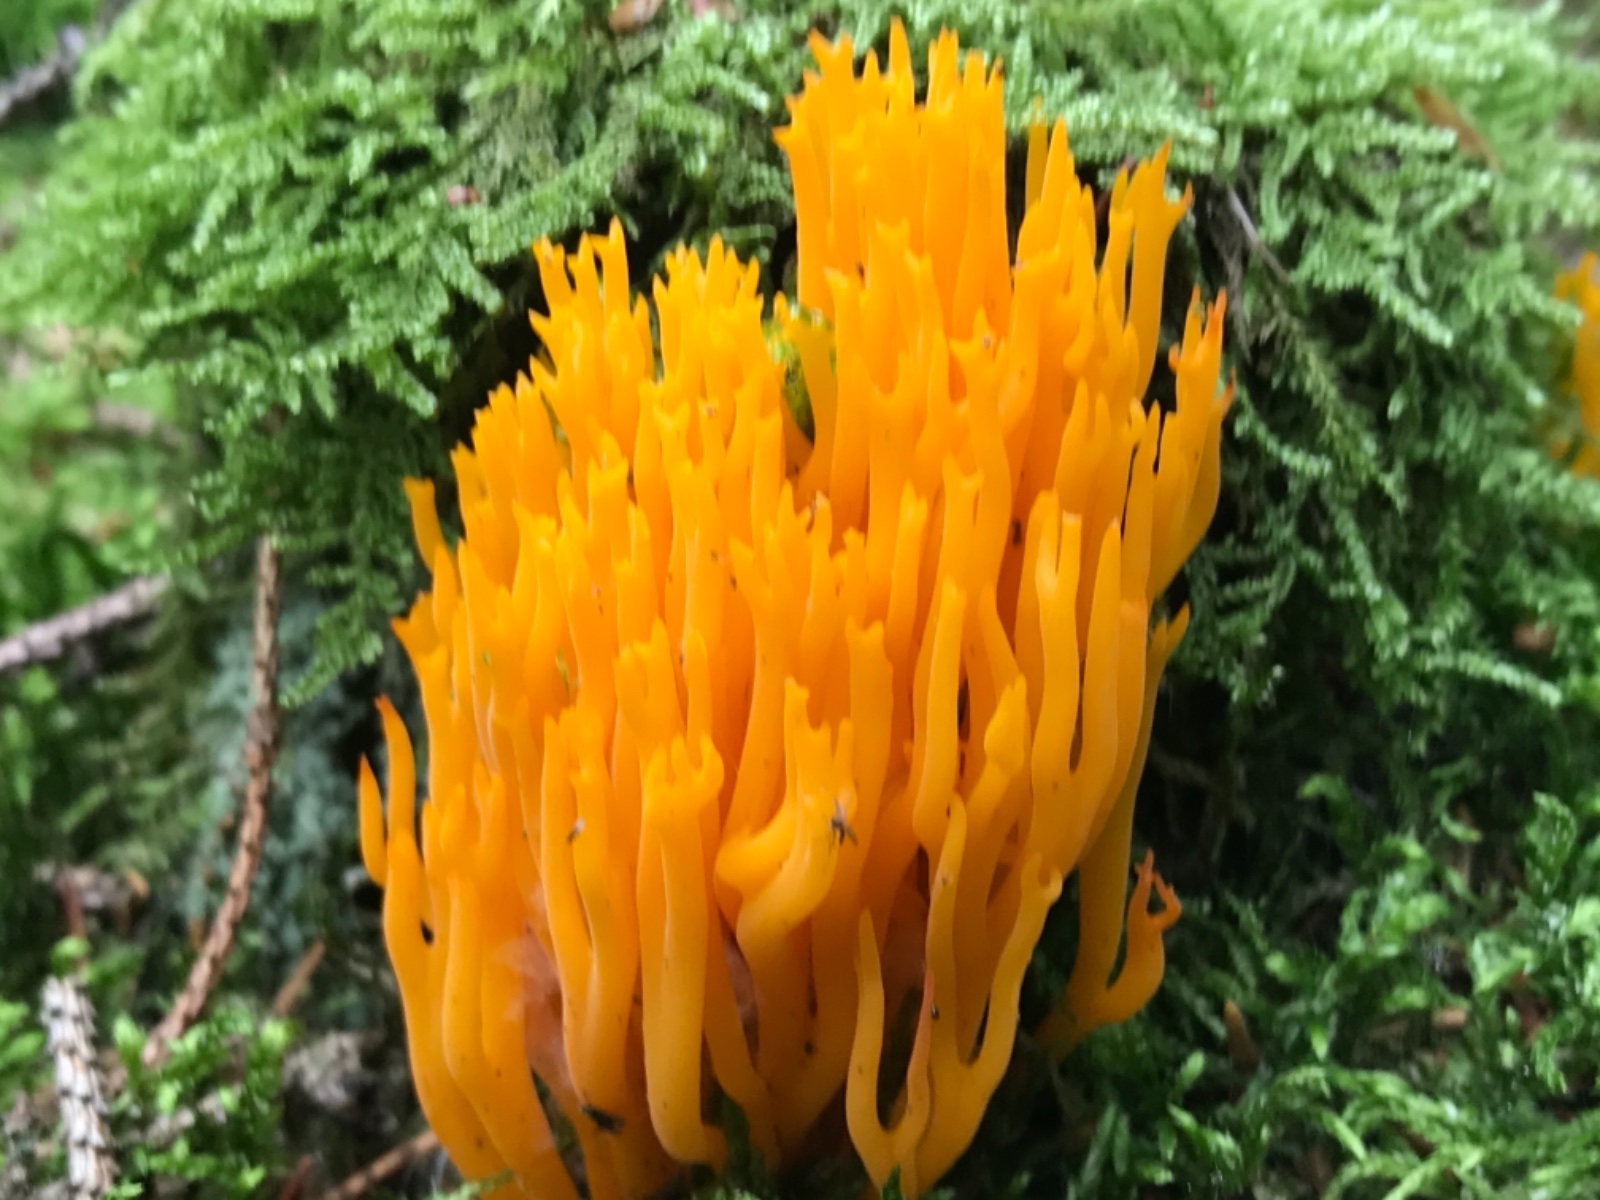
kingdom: Fungi
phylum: Basidiomycota
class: Dacrymycetes
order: Dacrymycetales
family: Dacrymycetaceae
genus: Calocera
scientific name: Calocera viscosa
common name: almindelig guldgaffel
